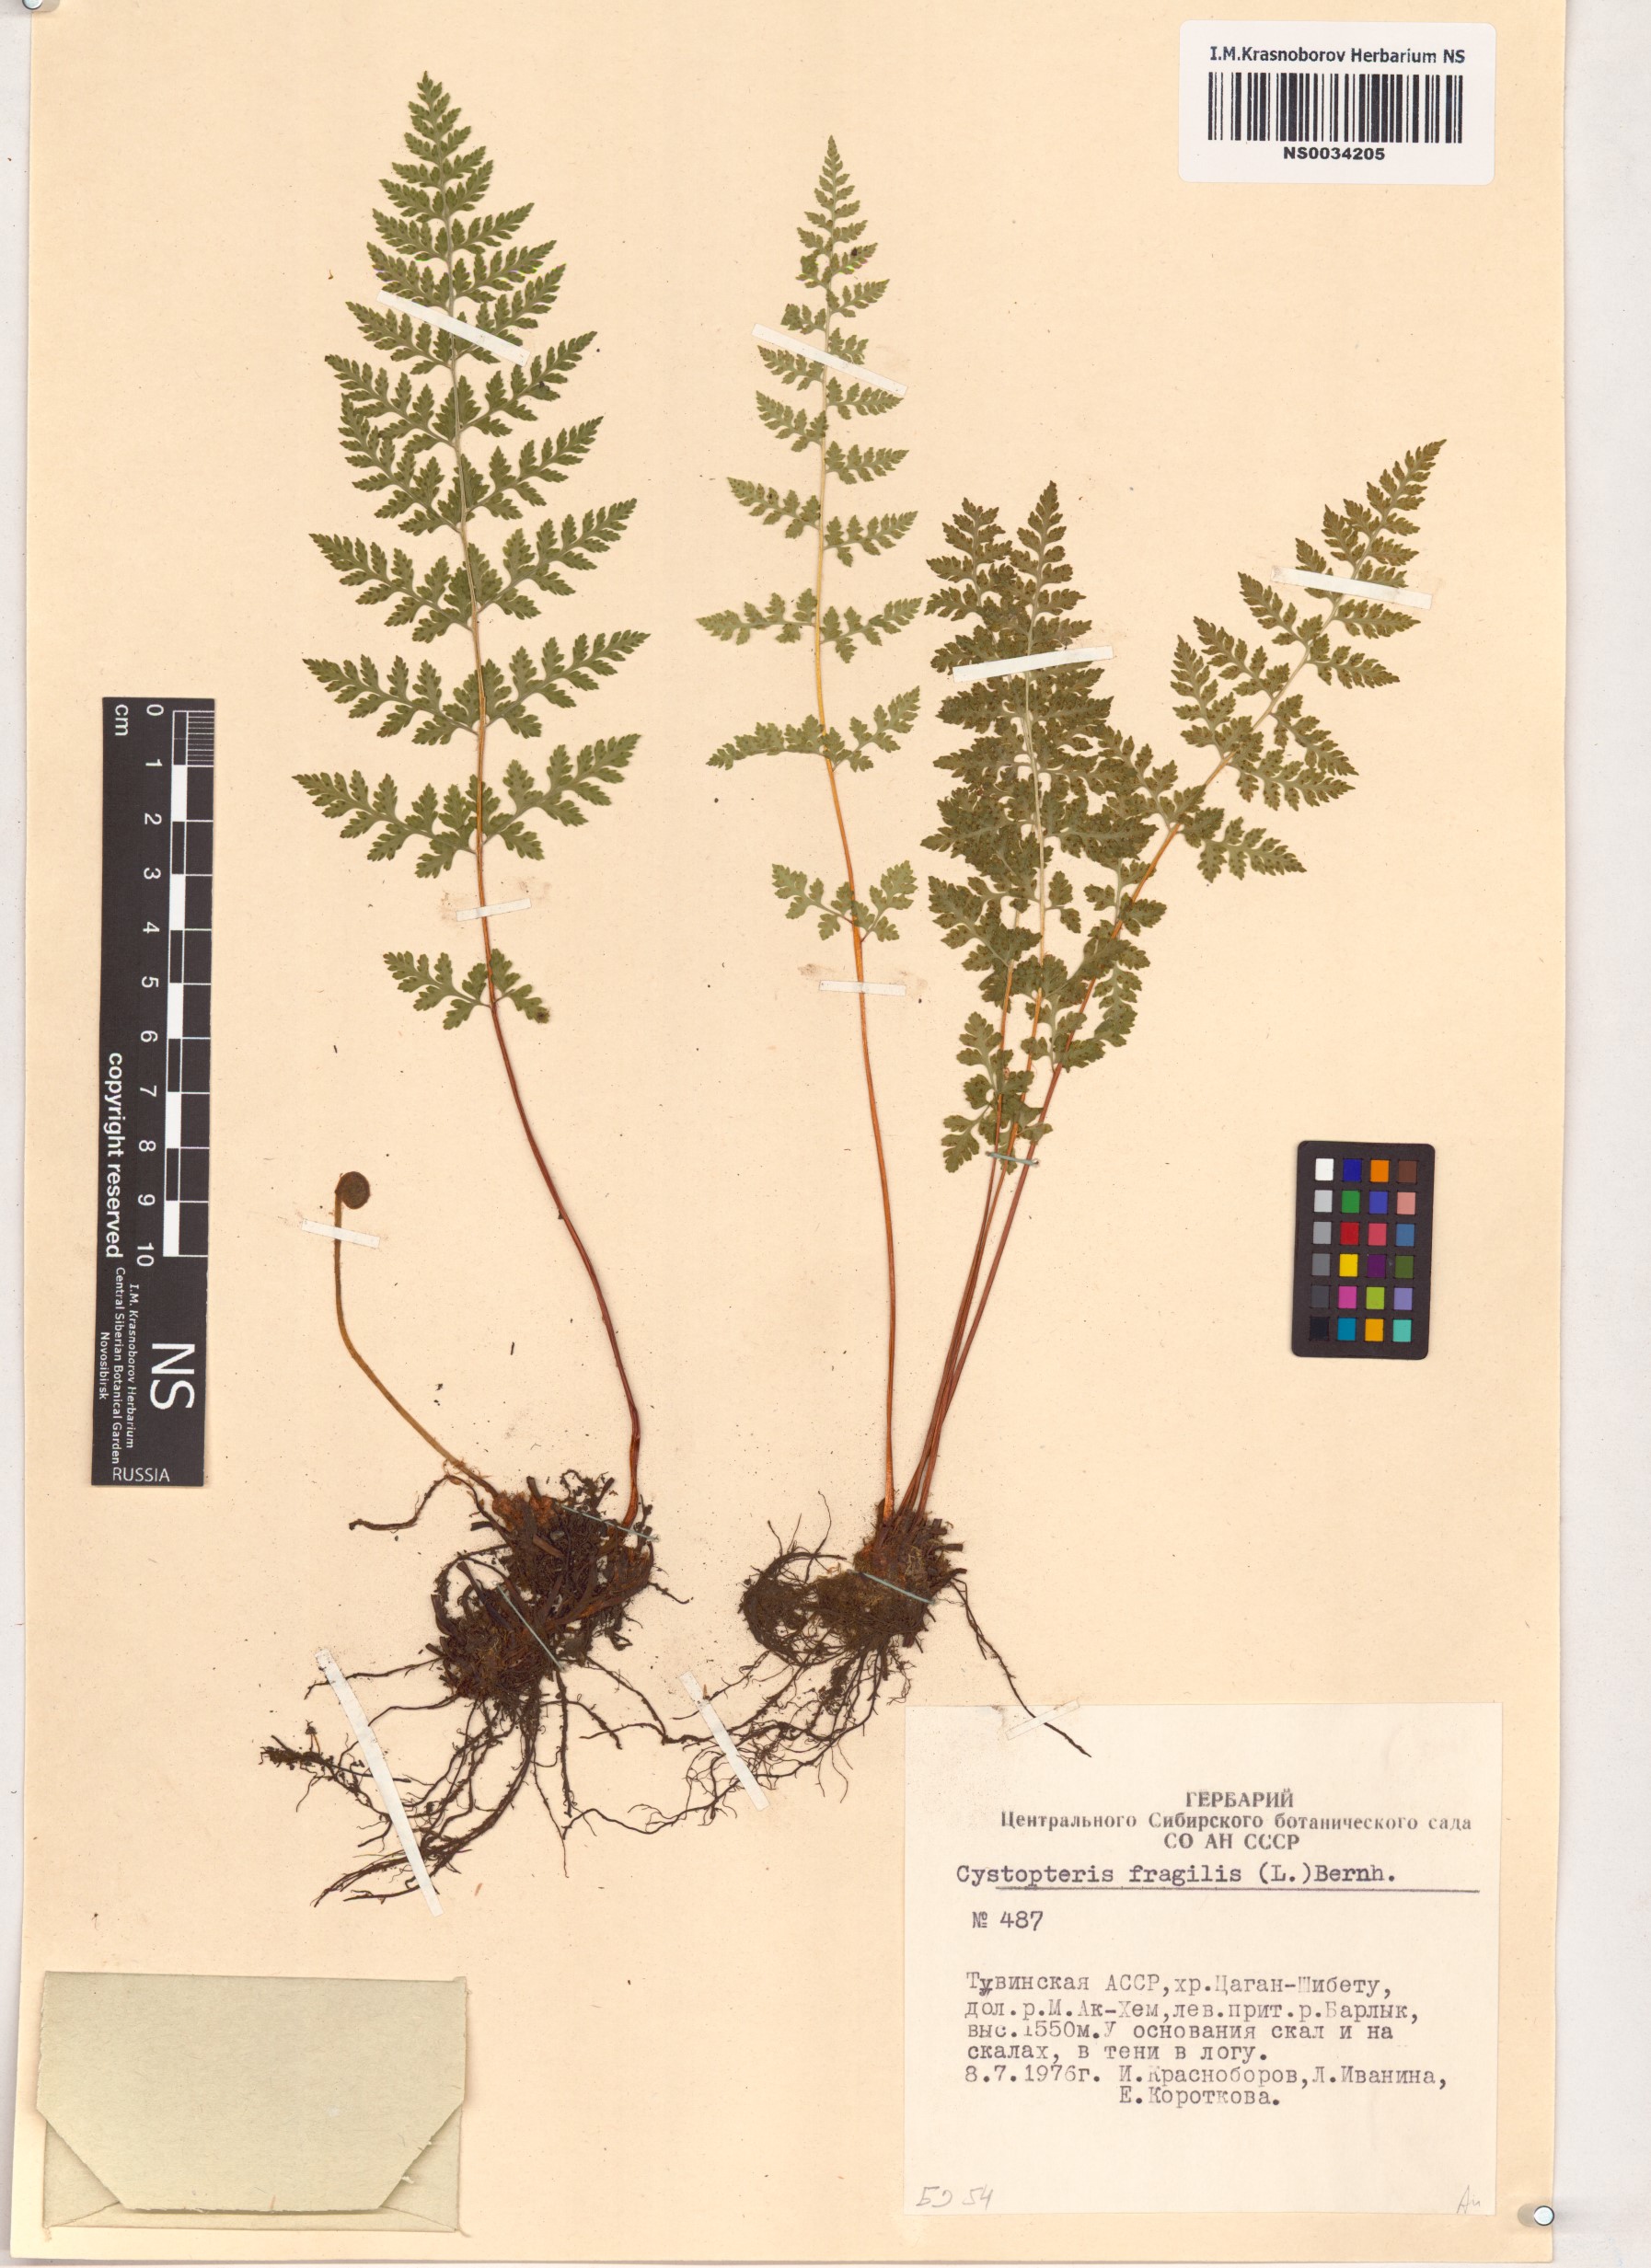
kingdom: Plantae
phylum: Tracheophyta
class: Polypodiopsida
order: Polypodiales
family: Cystopteridaceae
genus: Cystopteris
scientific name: Cystopteris fragilis
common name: Brittle bladder fern
